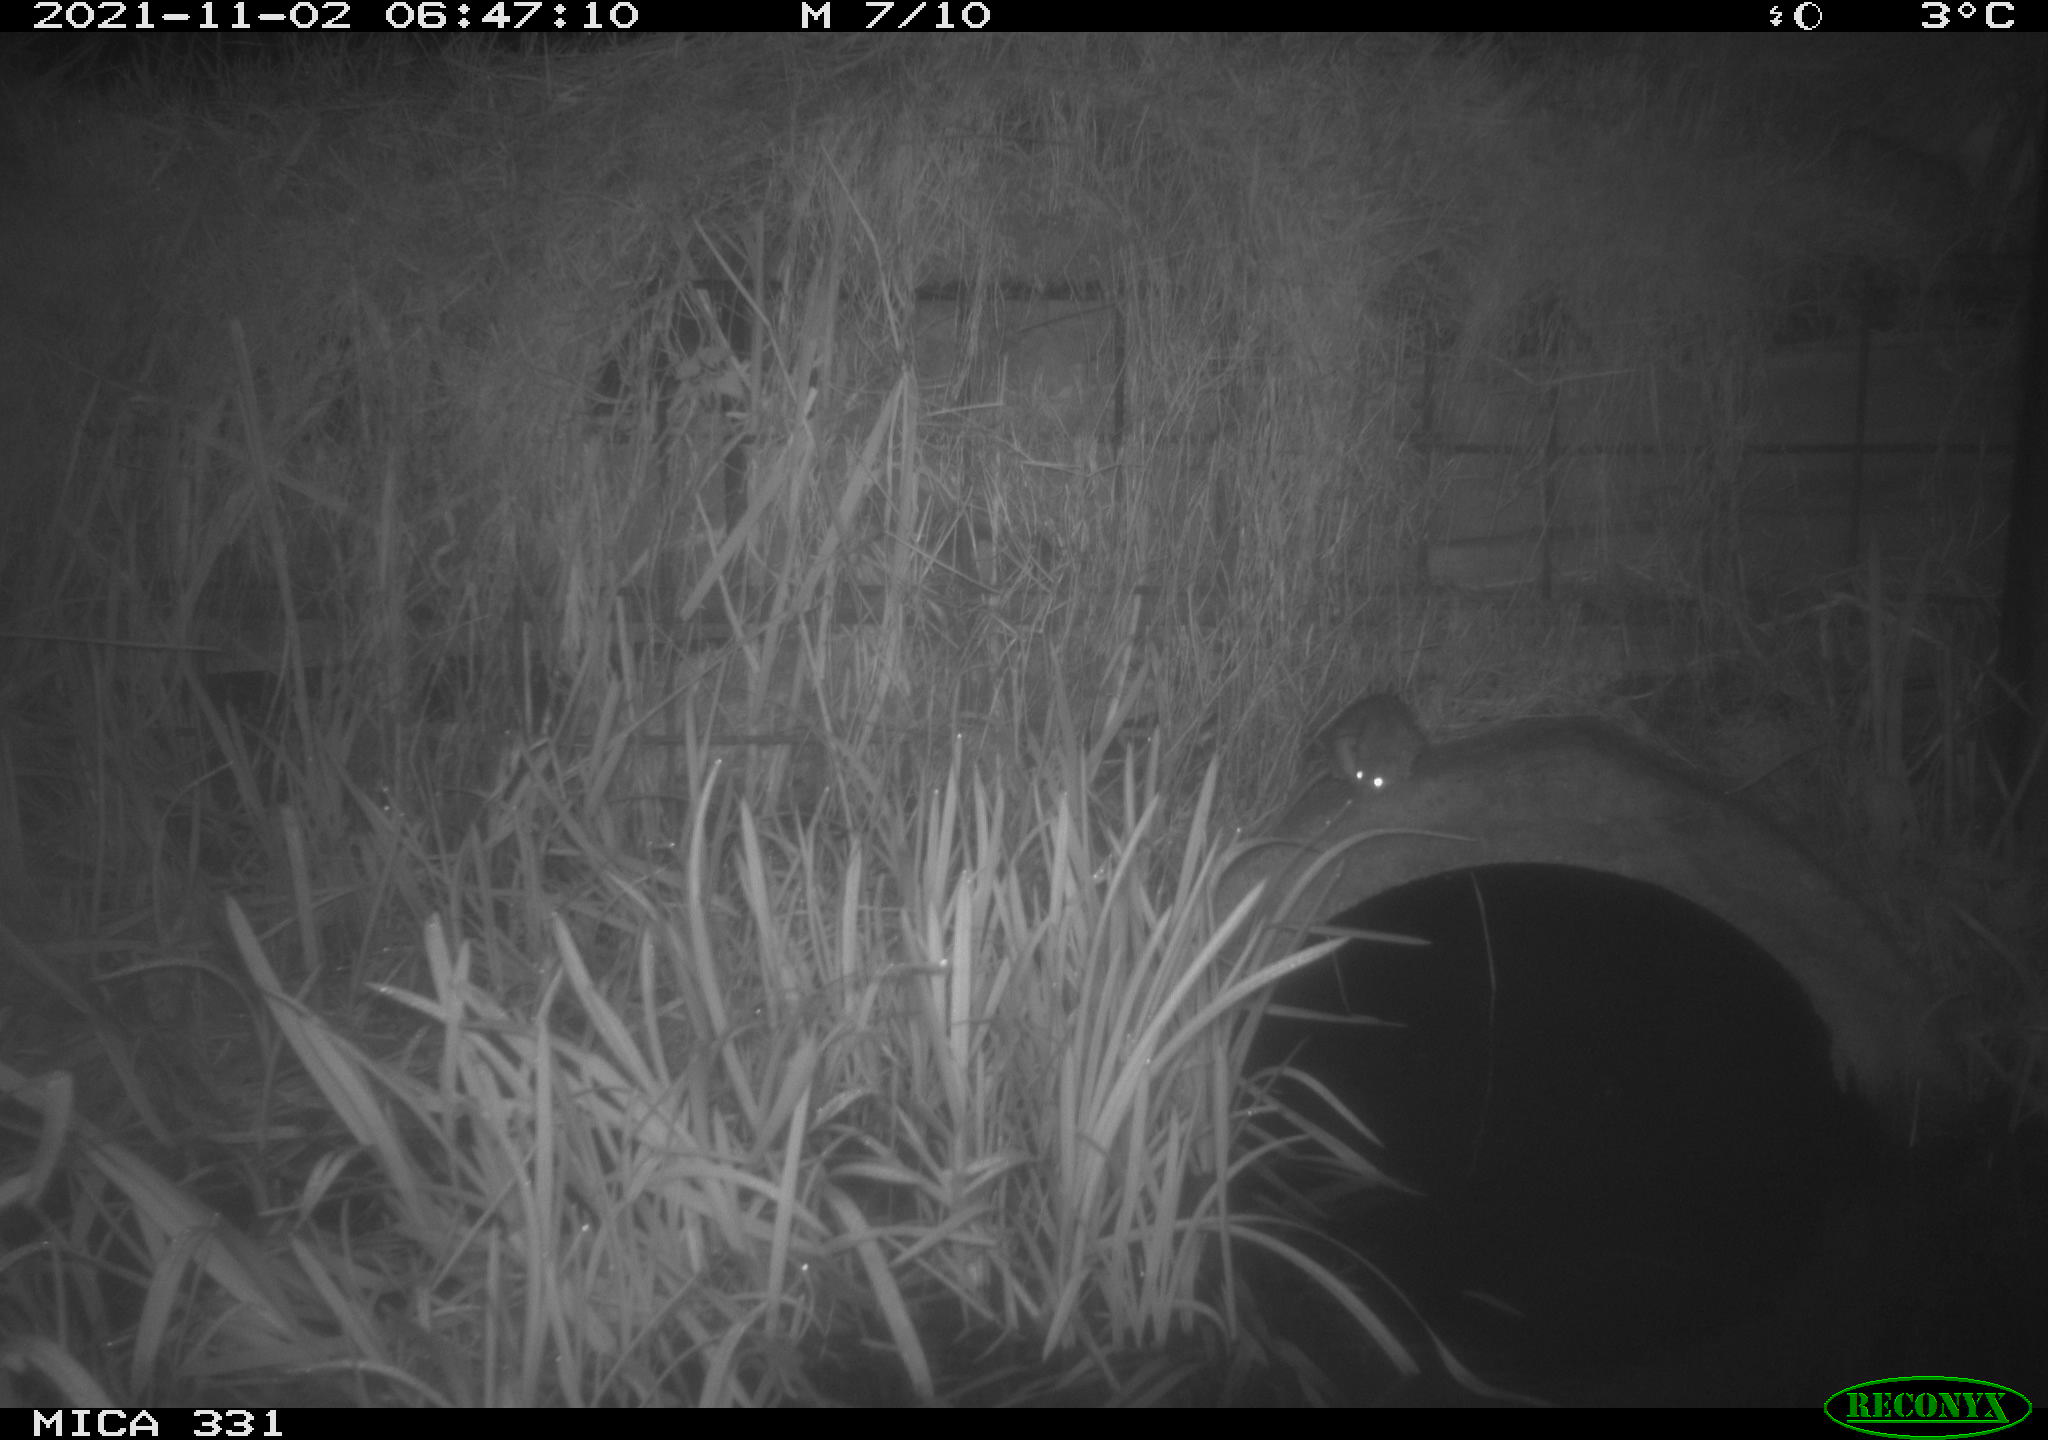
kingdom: Animalia
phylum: Chordata
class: Mammalia
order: Rodentia
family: Muridae
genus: Rattus
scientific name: Rattus norvegicus
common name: Brown rat
